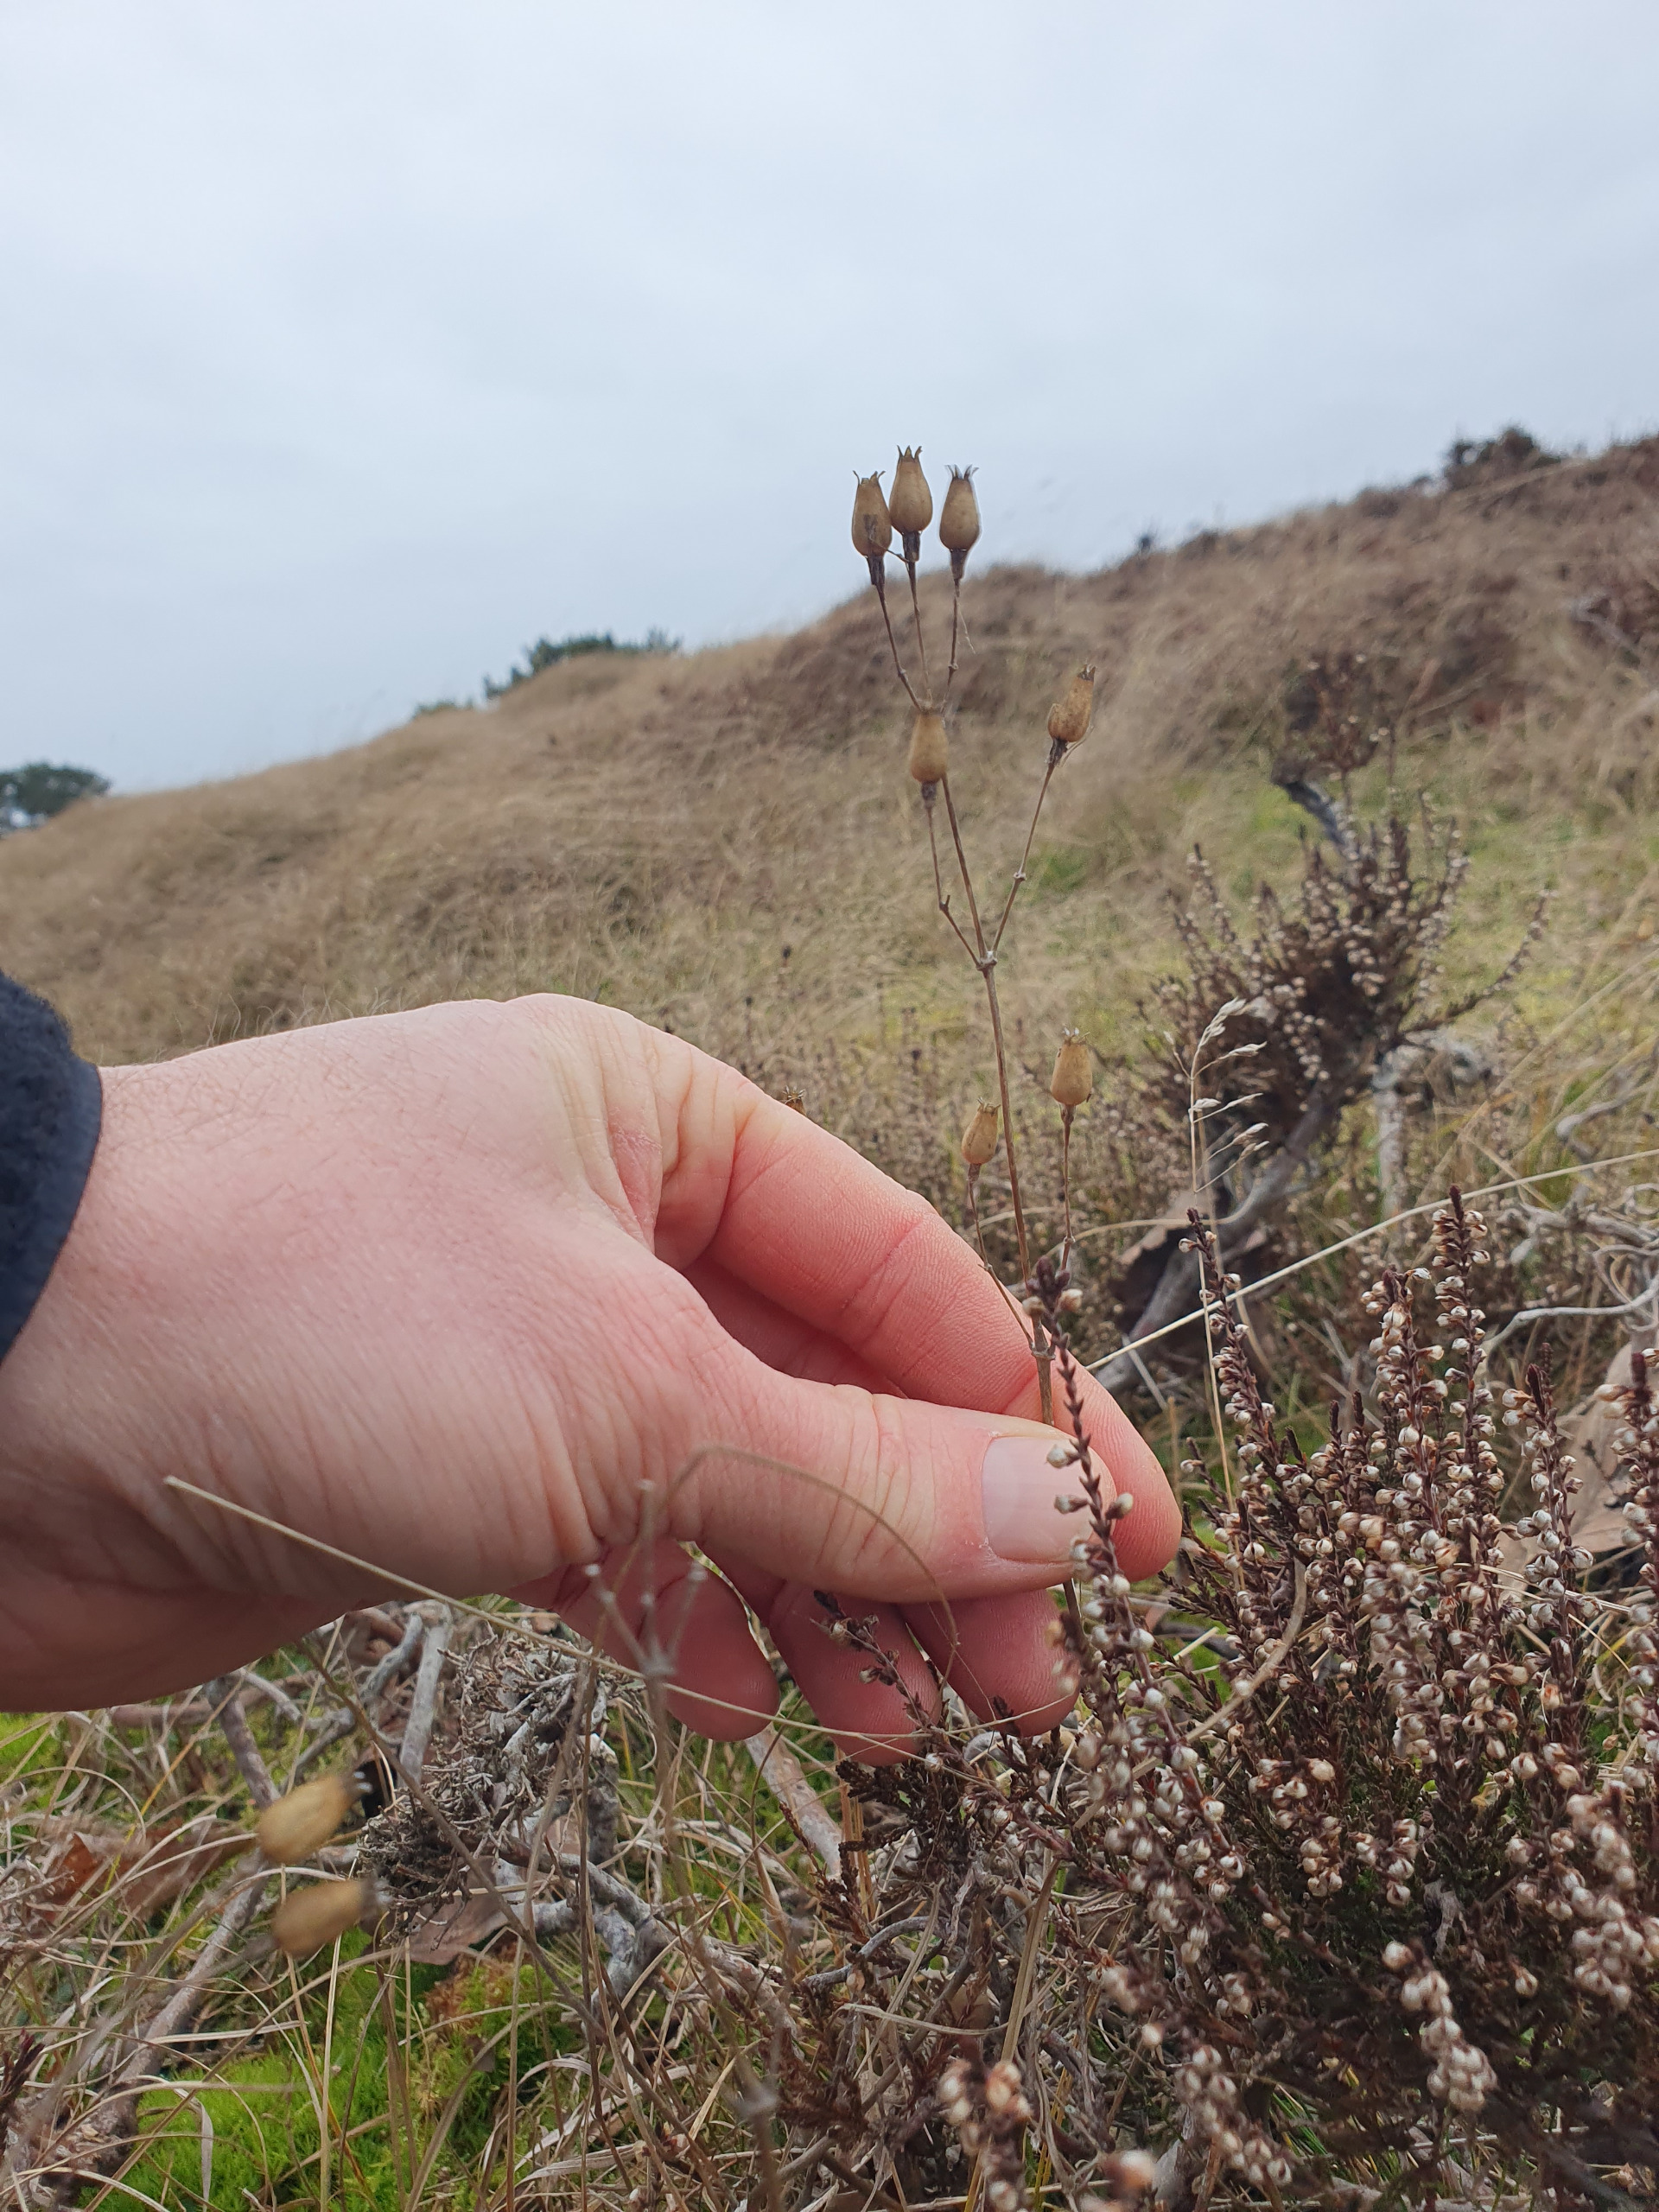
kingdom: Plantae
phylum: Tracheophyta
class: Magnoliopsida
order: Caryophyllales
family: Caryophyllaceae
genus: Silene
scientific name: Silene nutans
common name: Nikkende limurt
